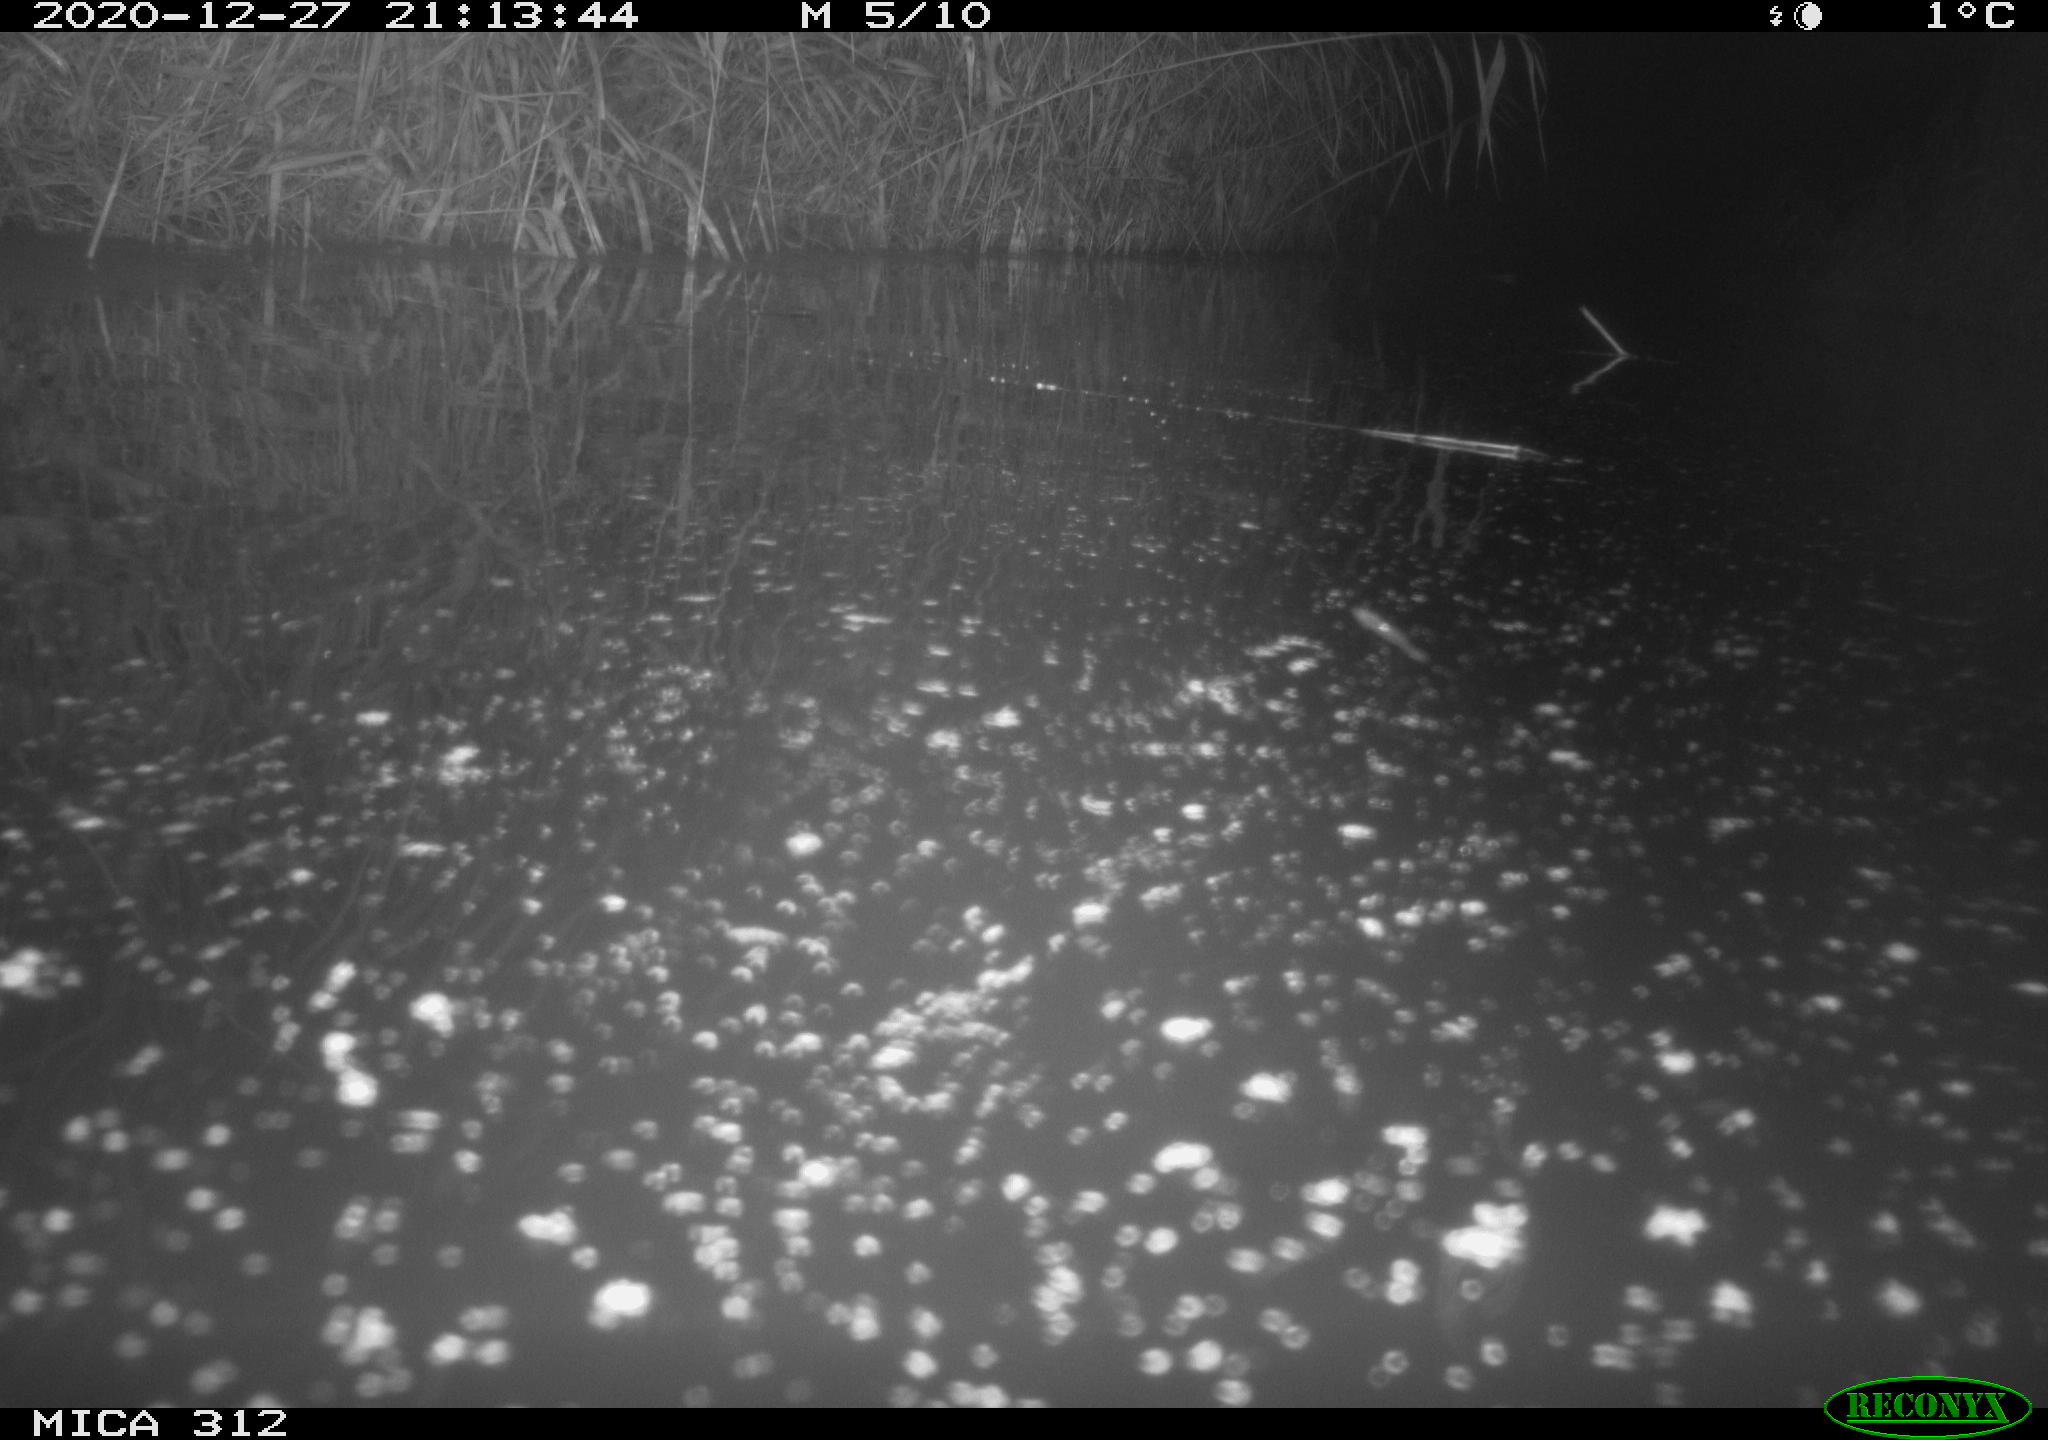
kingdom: Animalia
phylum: Chordata
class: Aves
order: Gruiformes
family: Rallidae
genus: Fulica
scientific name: Fulica atra
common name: Eurasian coot
